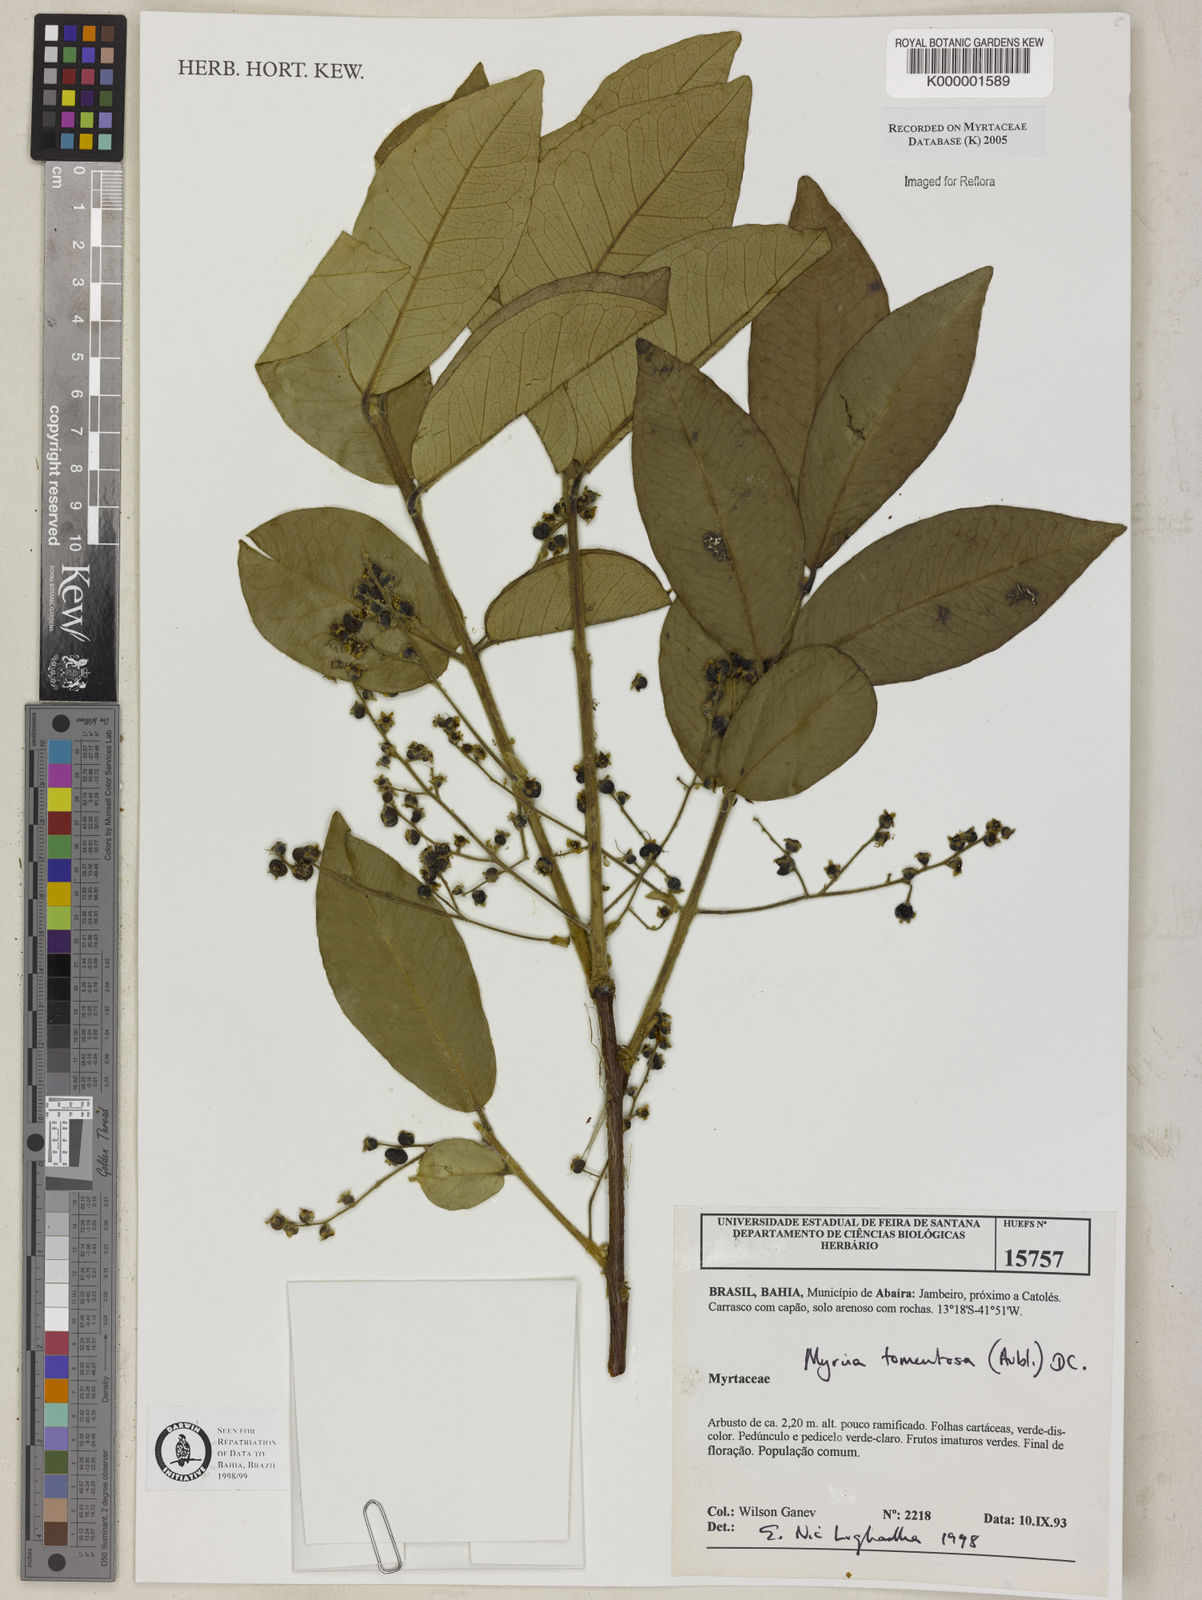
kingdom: Plantae
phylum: Tracheophyta
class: Magnoliopsida
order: Myrtales
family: Myrtaceae
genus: Myrcia
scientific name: Myrcia tomentosa
